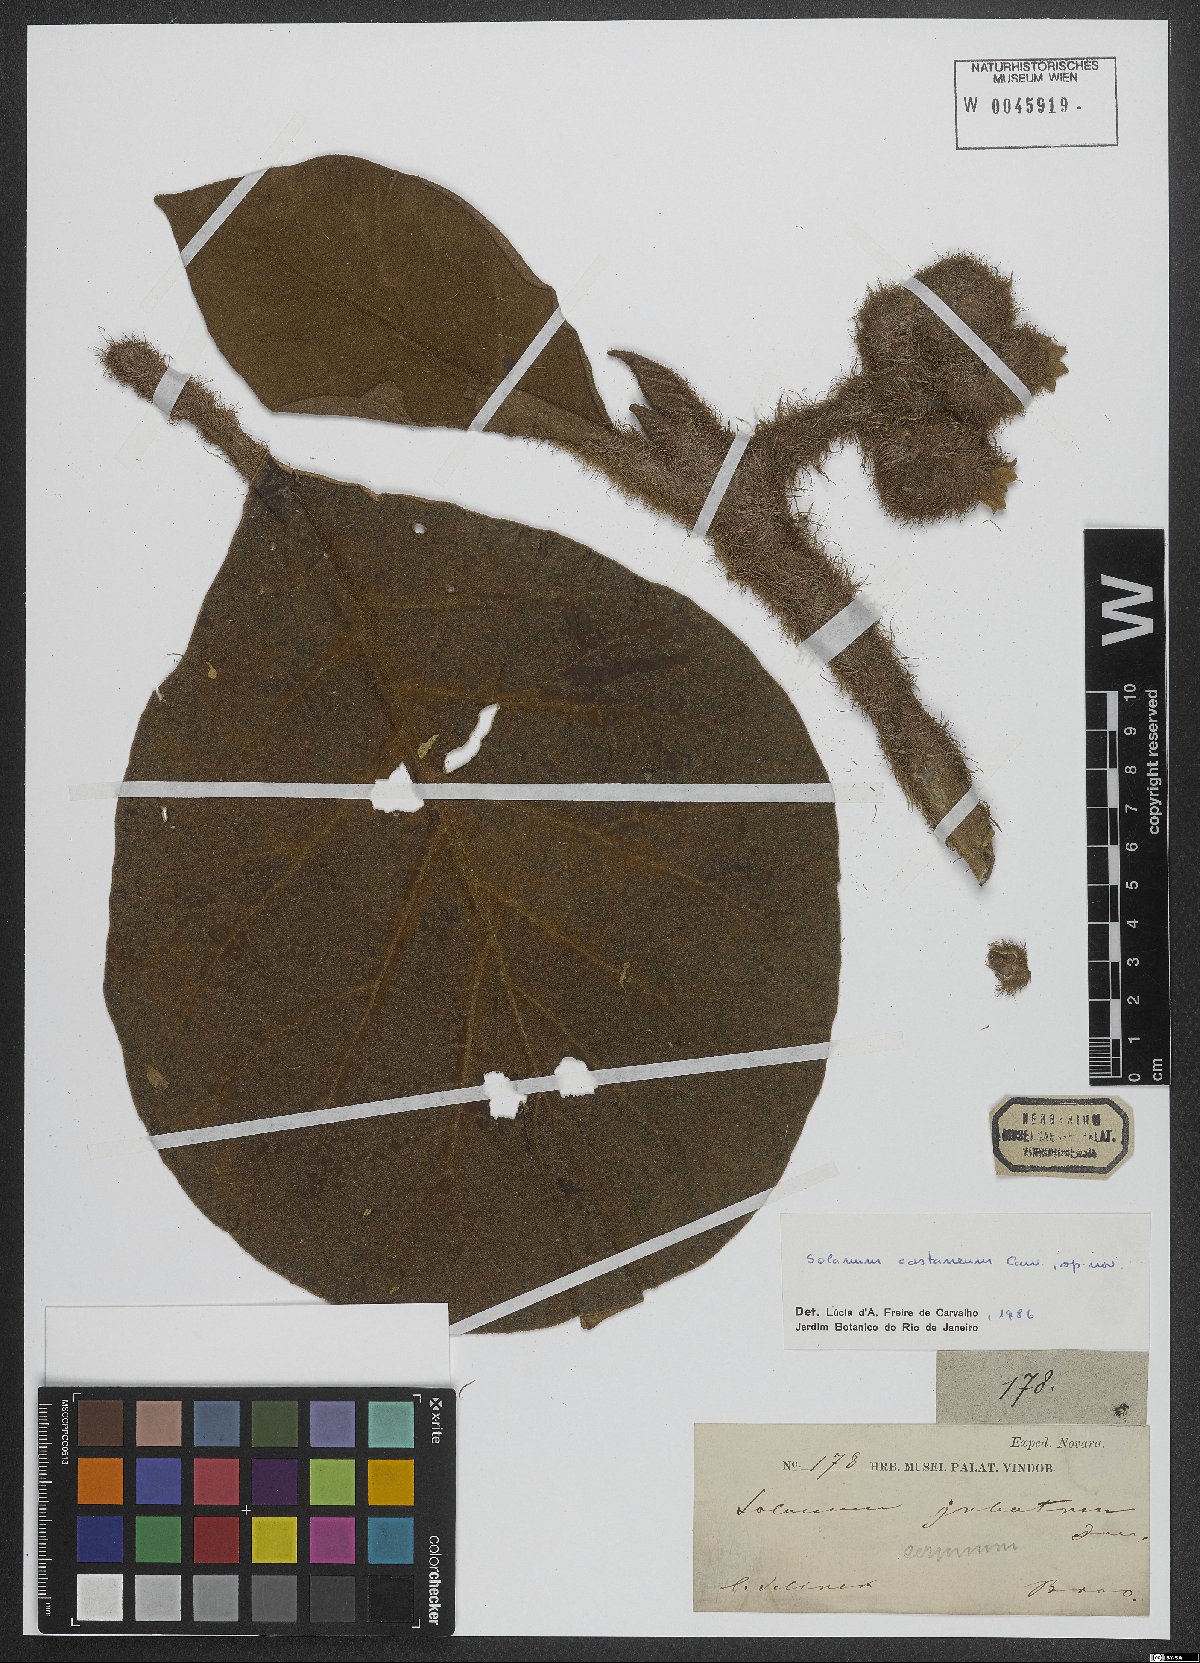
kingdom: Plantae
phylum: Tracheophyta
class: Magnoliopsida
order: Solanales
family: Solanaceae
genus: Solanum
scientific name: Solanum castaneum
